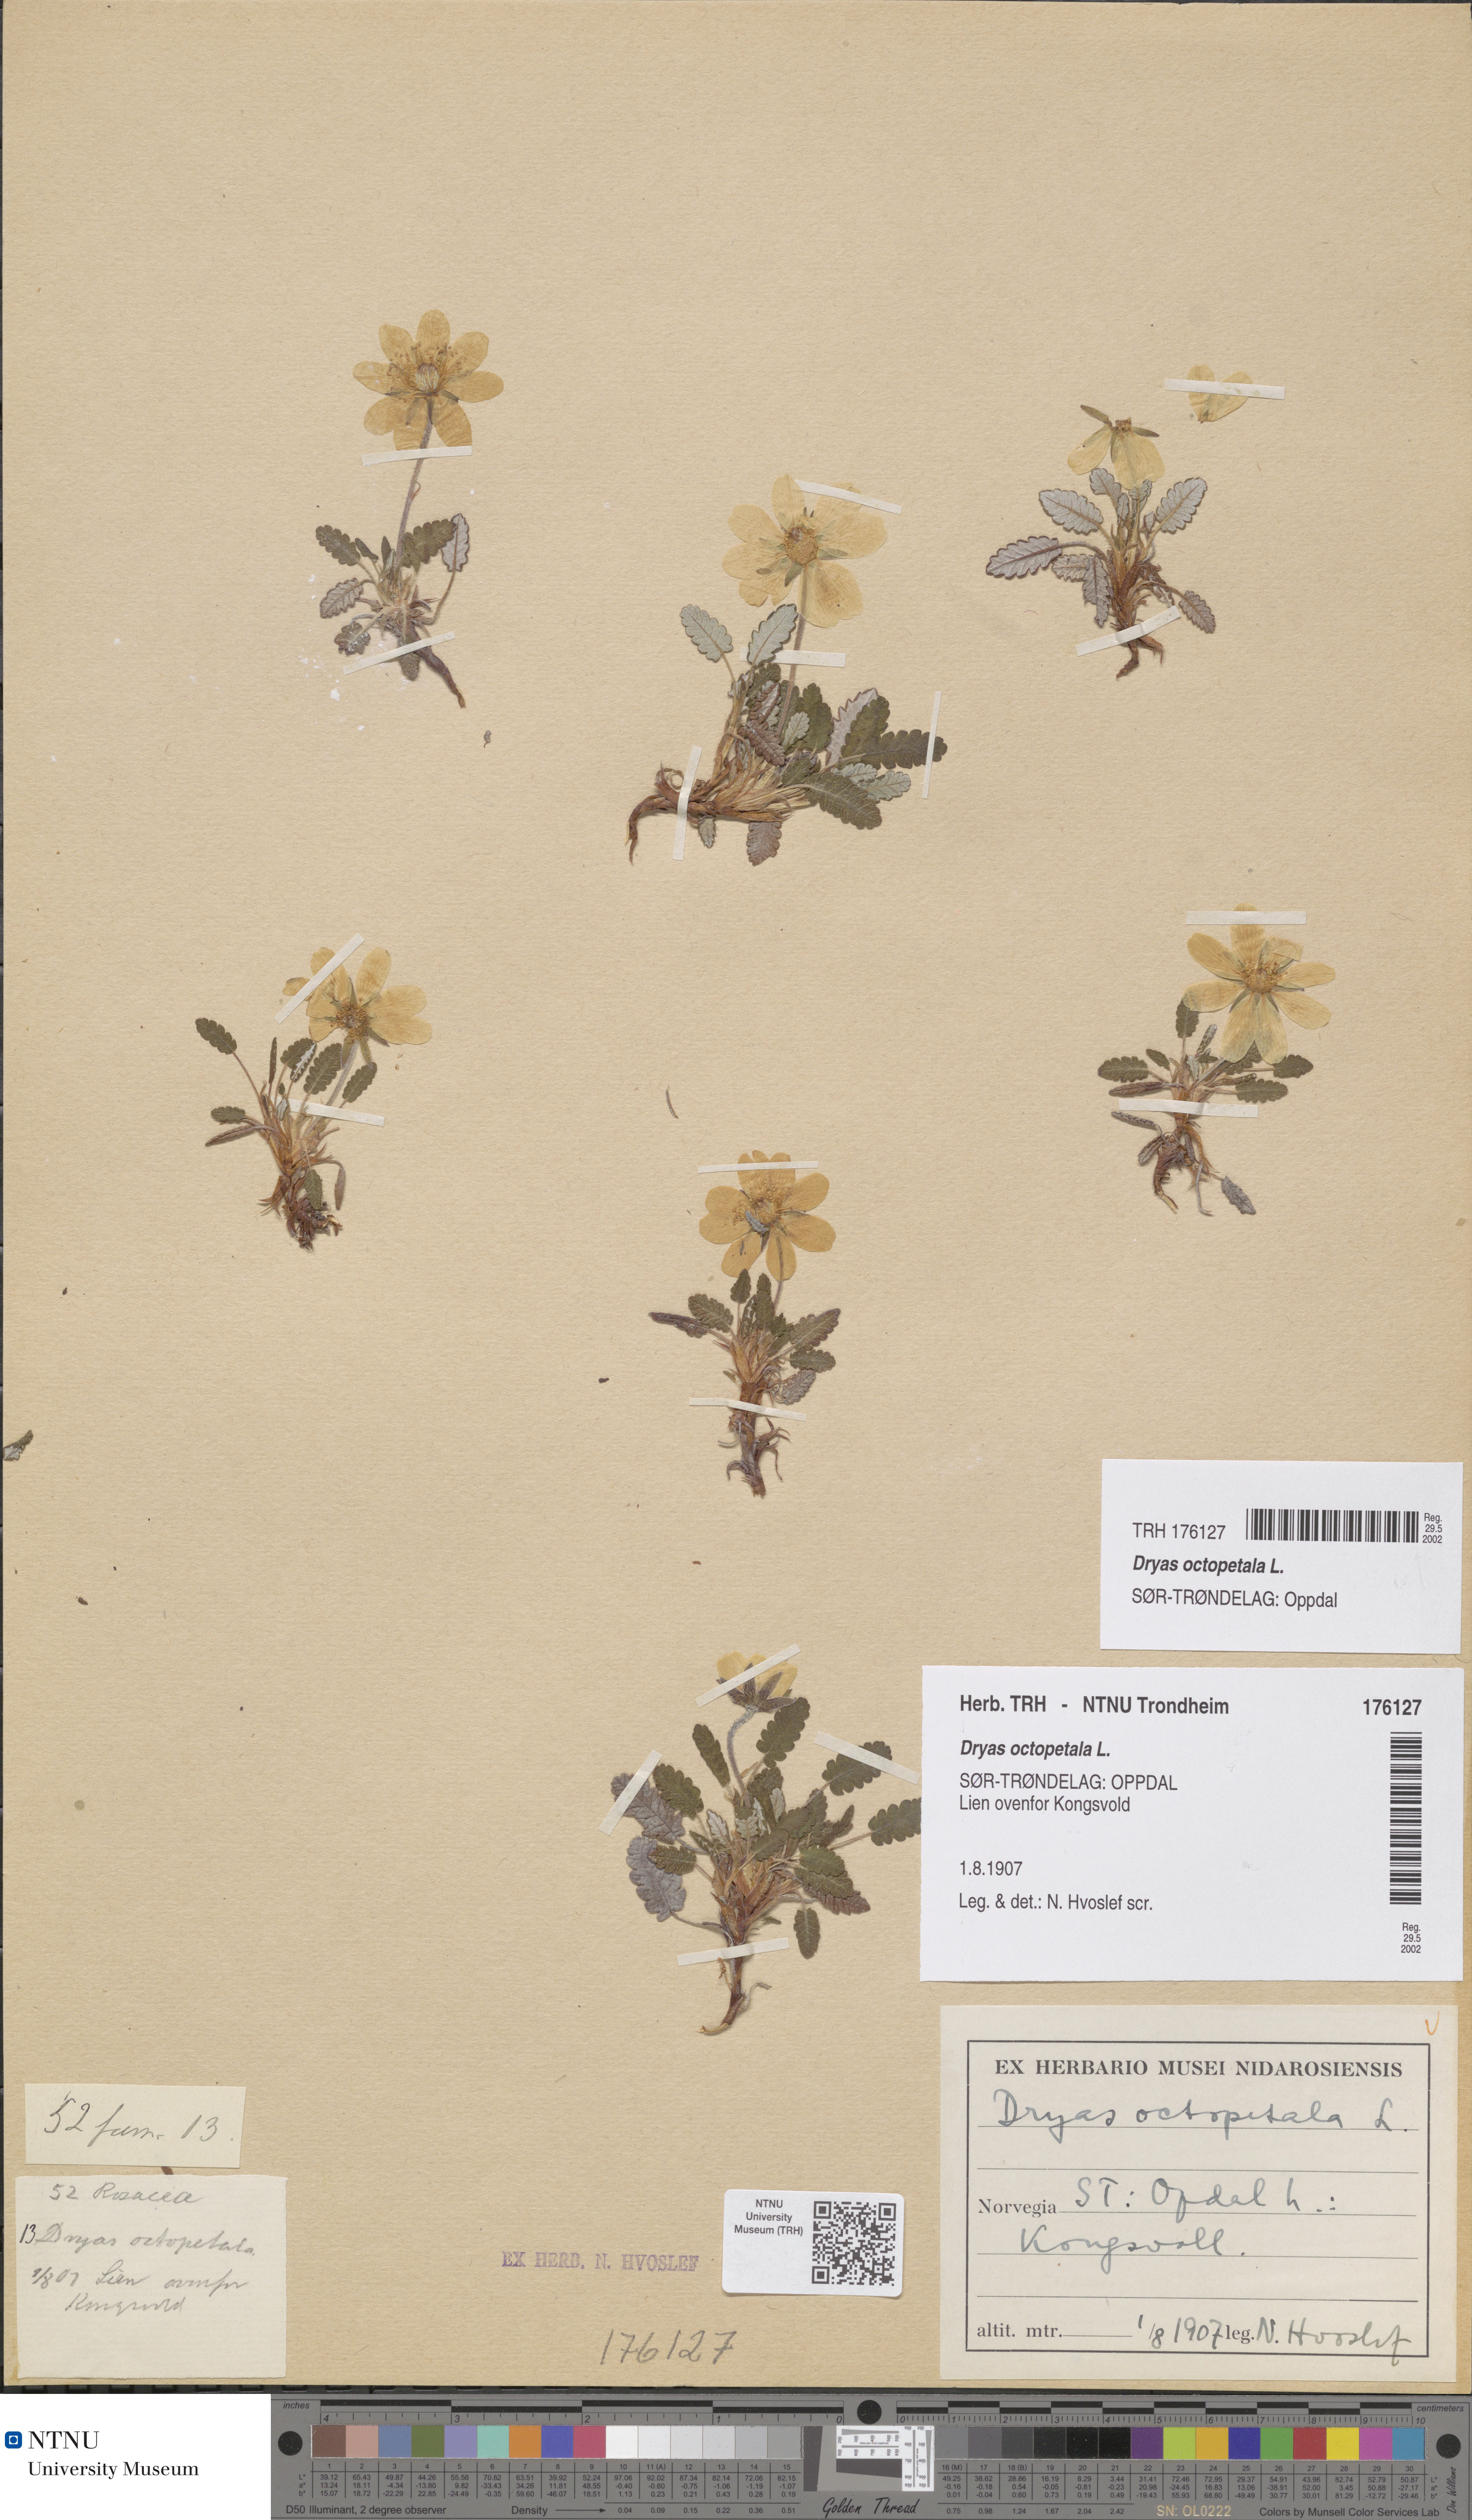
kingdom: Plantae
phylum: Tracheophyta
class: Magnoliopsida
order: Rosales
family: Rosaceae
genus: Dryas
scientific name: Dryas octopetala
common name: Eight-petal mountain-avens
